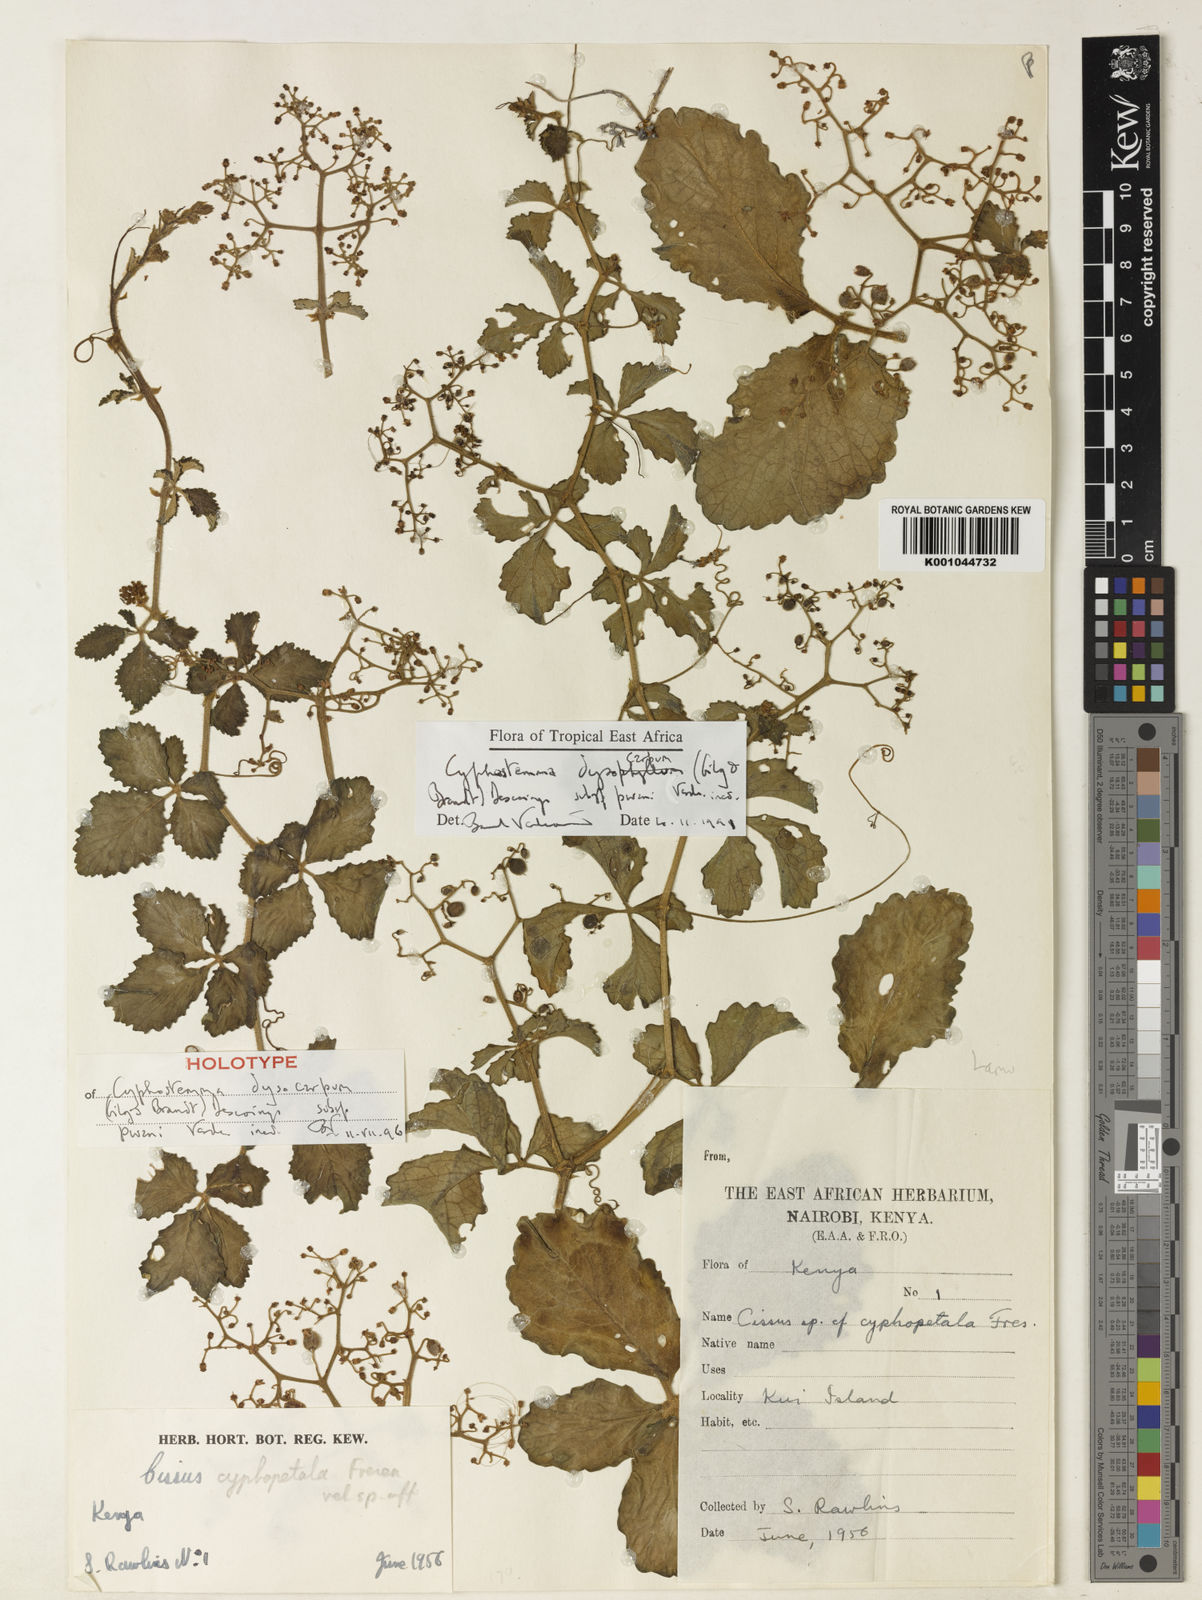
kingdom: Plantae
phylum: Tracheophyta
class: Magnoliopsida
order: Vitales
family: Vitaceae
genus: Cyphostemma
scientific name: Cyphostemma dysocarpum
